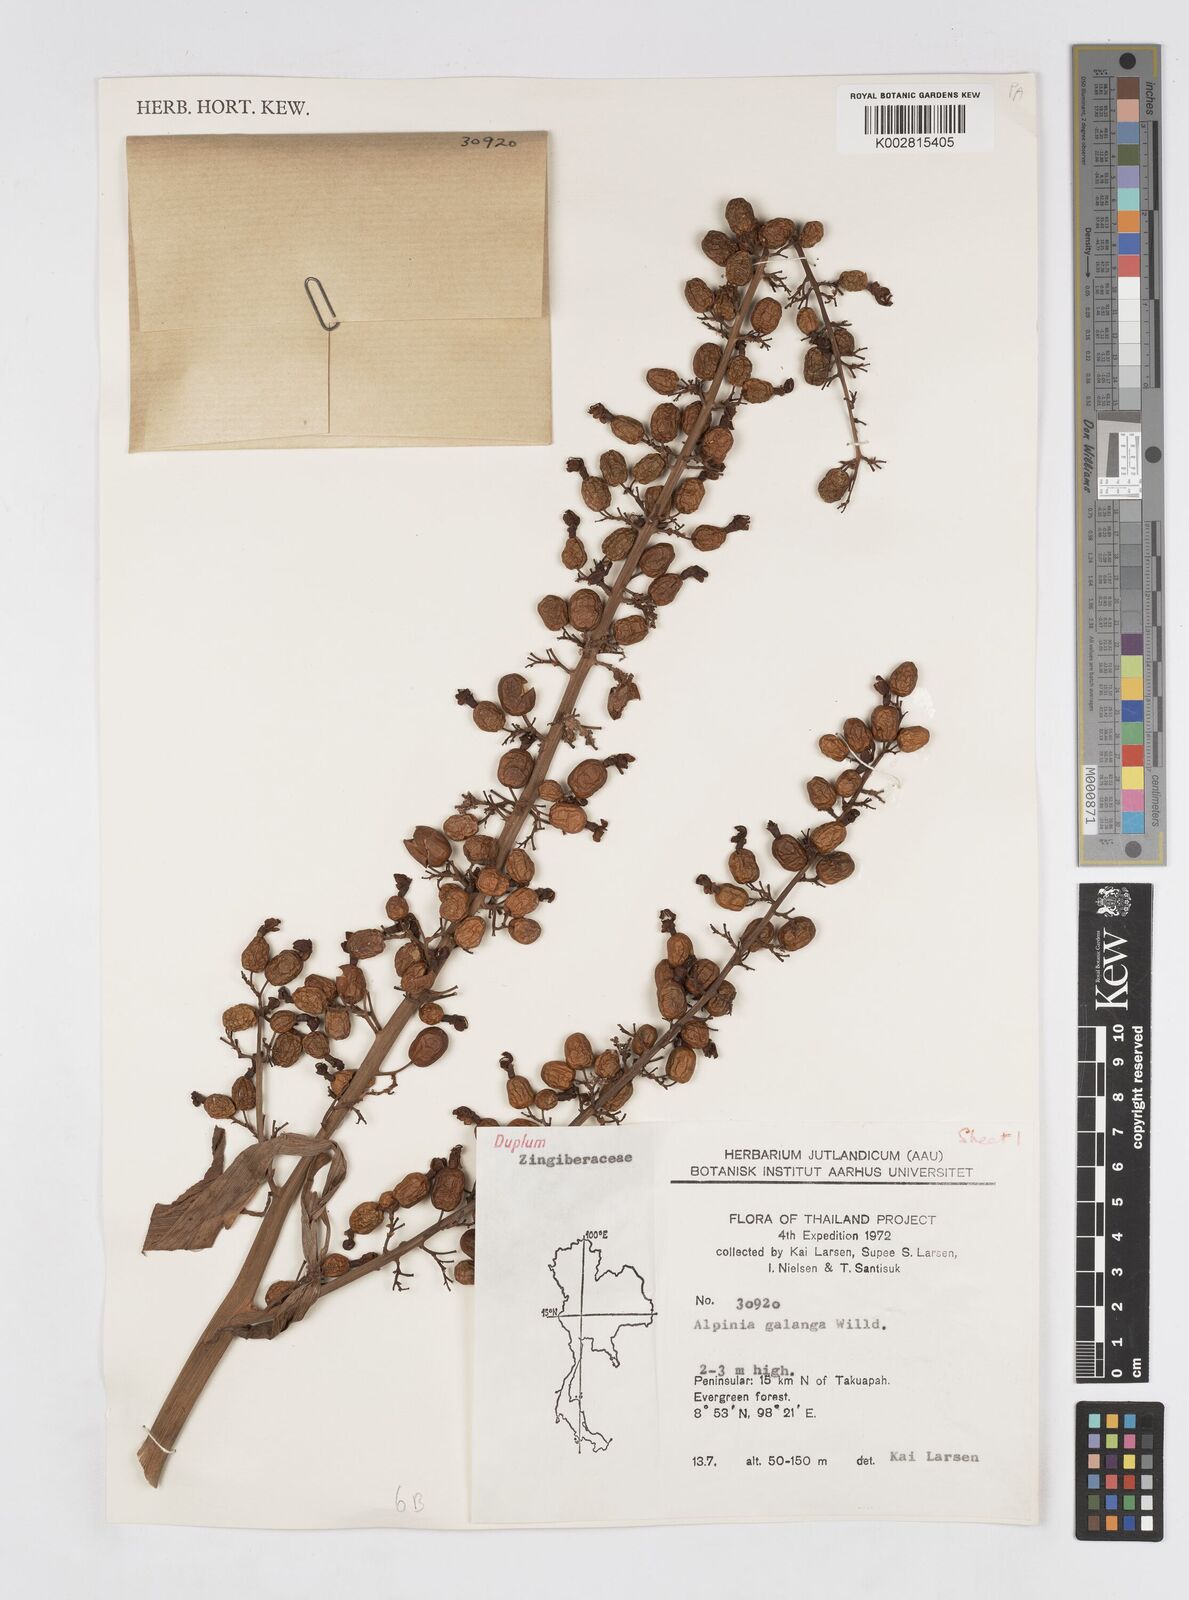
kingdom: Plantae
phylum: Tracheophyta
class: Liliopsida
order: Zingiberales
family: Zingiberaceae
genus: Alpinia
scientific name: Alpinia galanga
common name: Siamese-ginger
